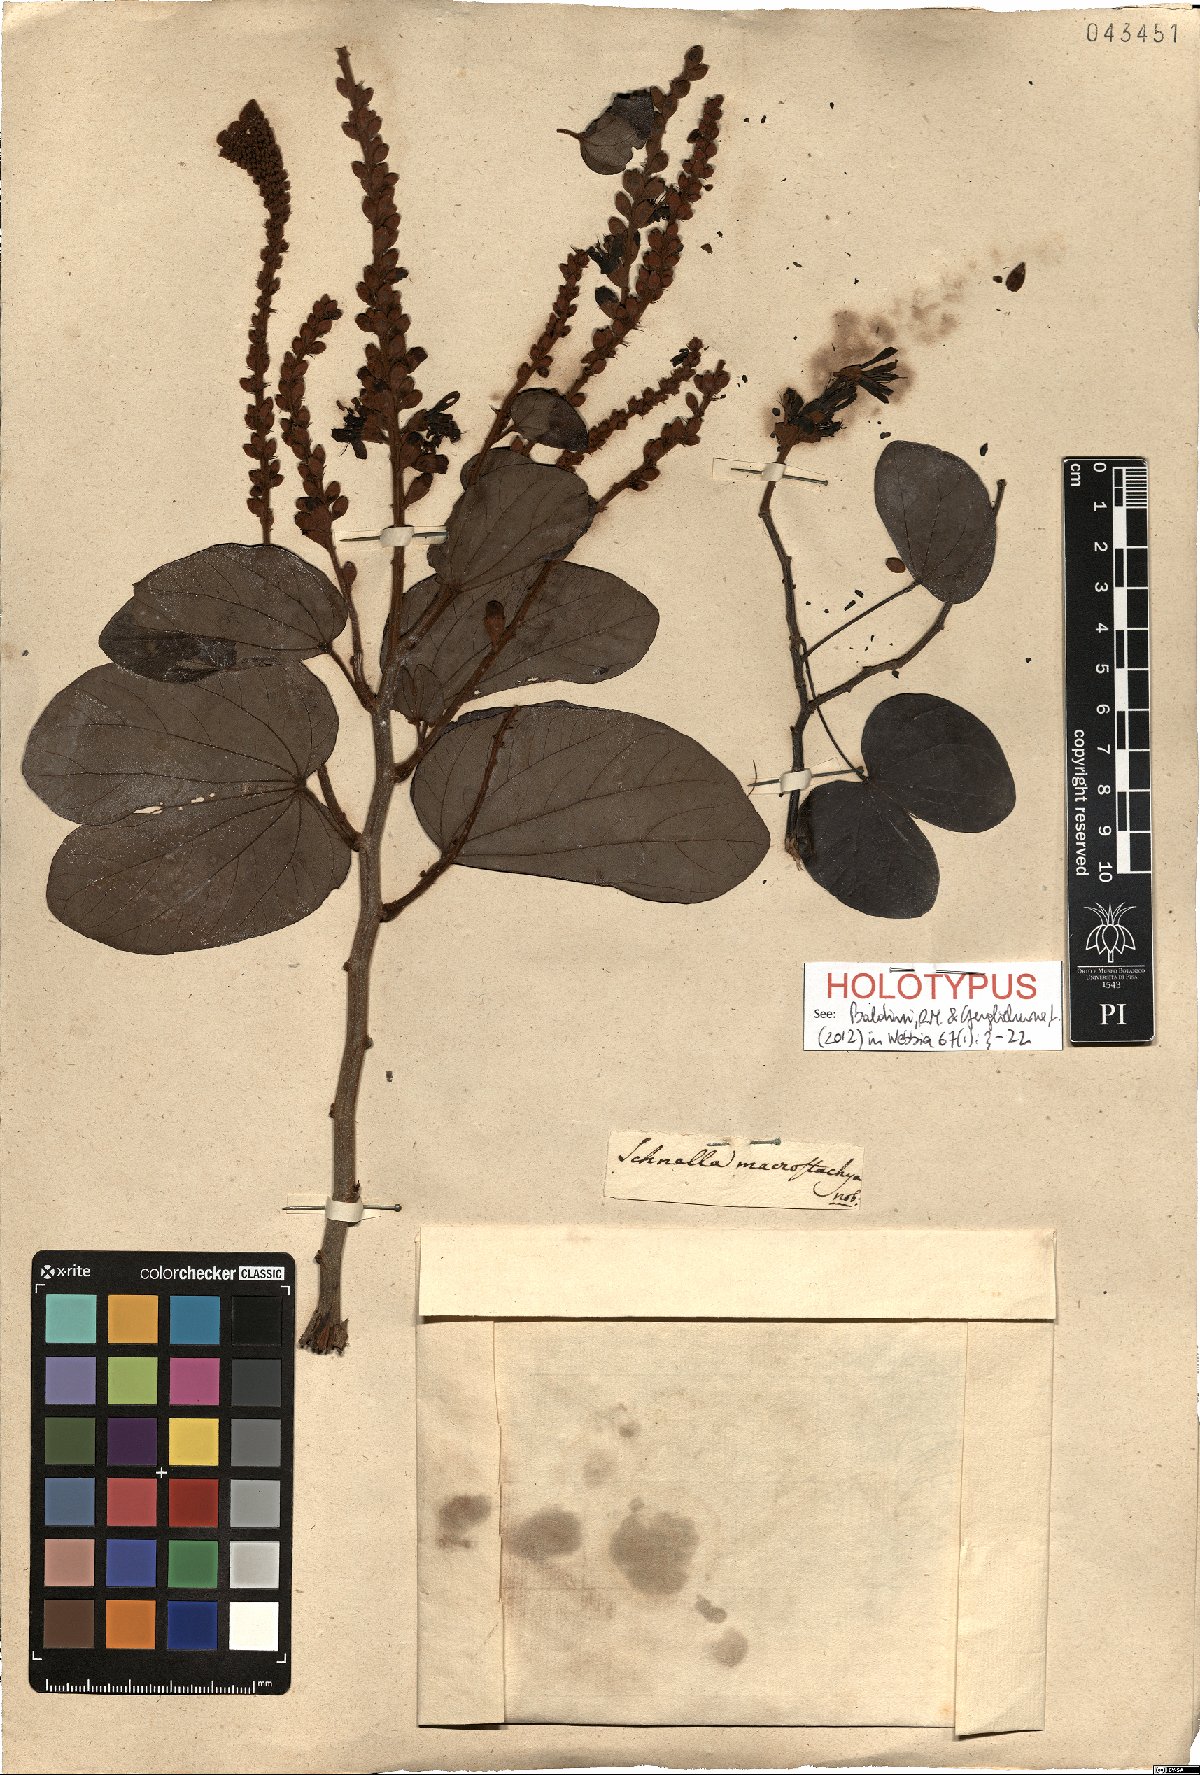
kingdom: Plantae
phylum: Tracheophyta
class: Magnoliopsida
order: Fabales
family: Fabaceae
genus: Schnella
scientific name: Schnella macrostachya
